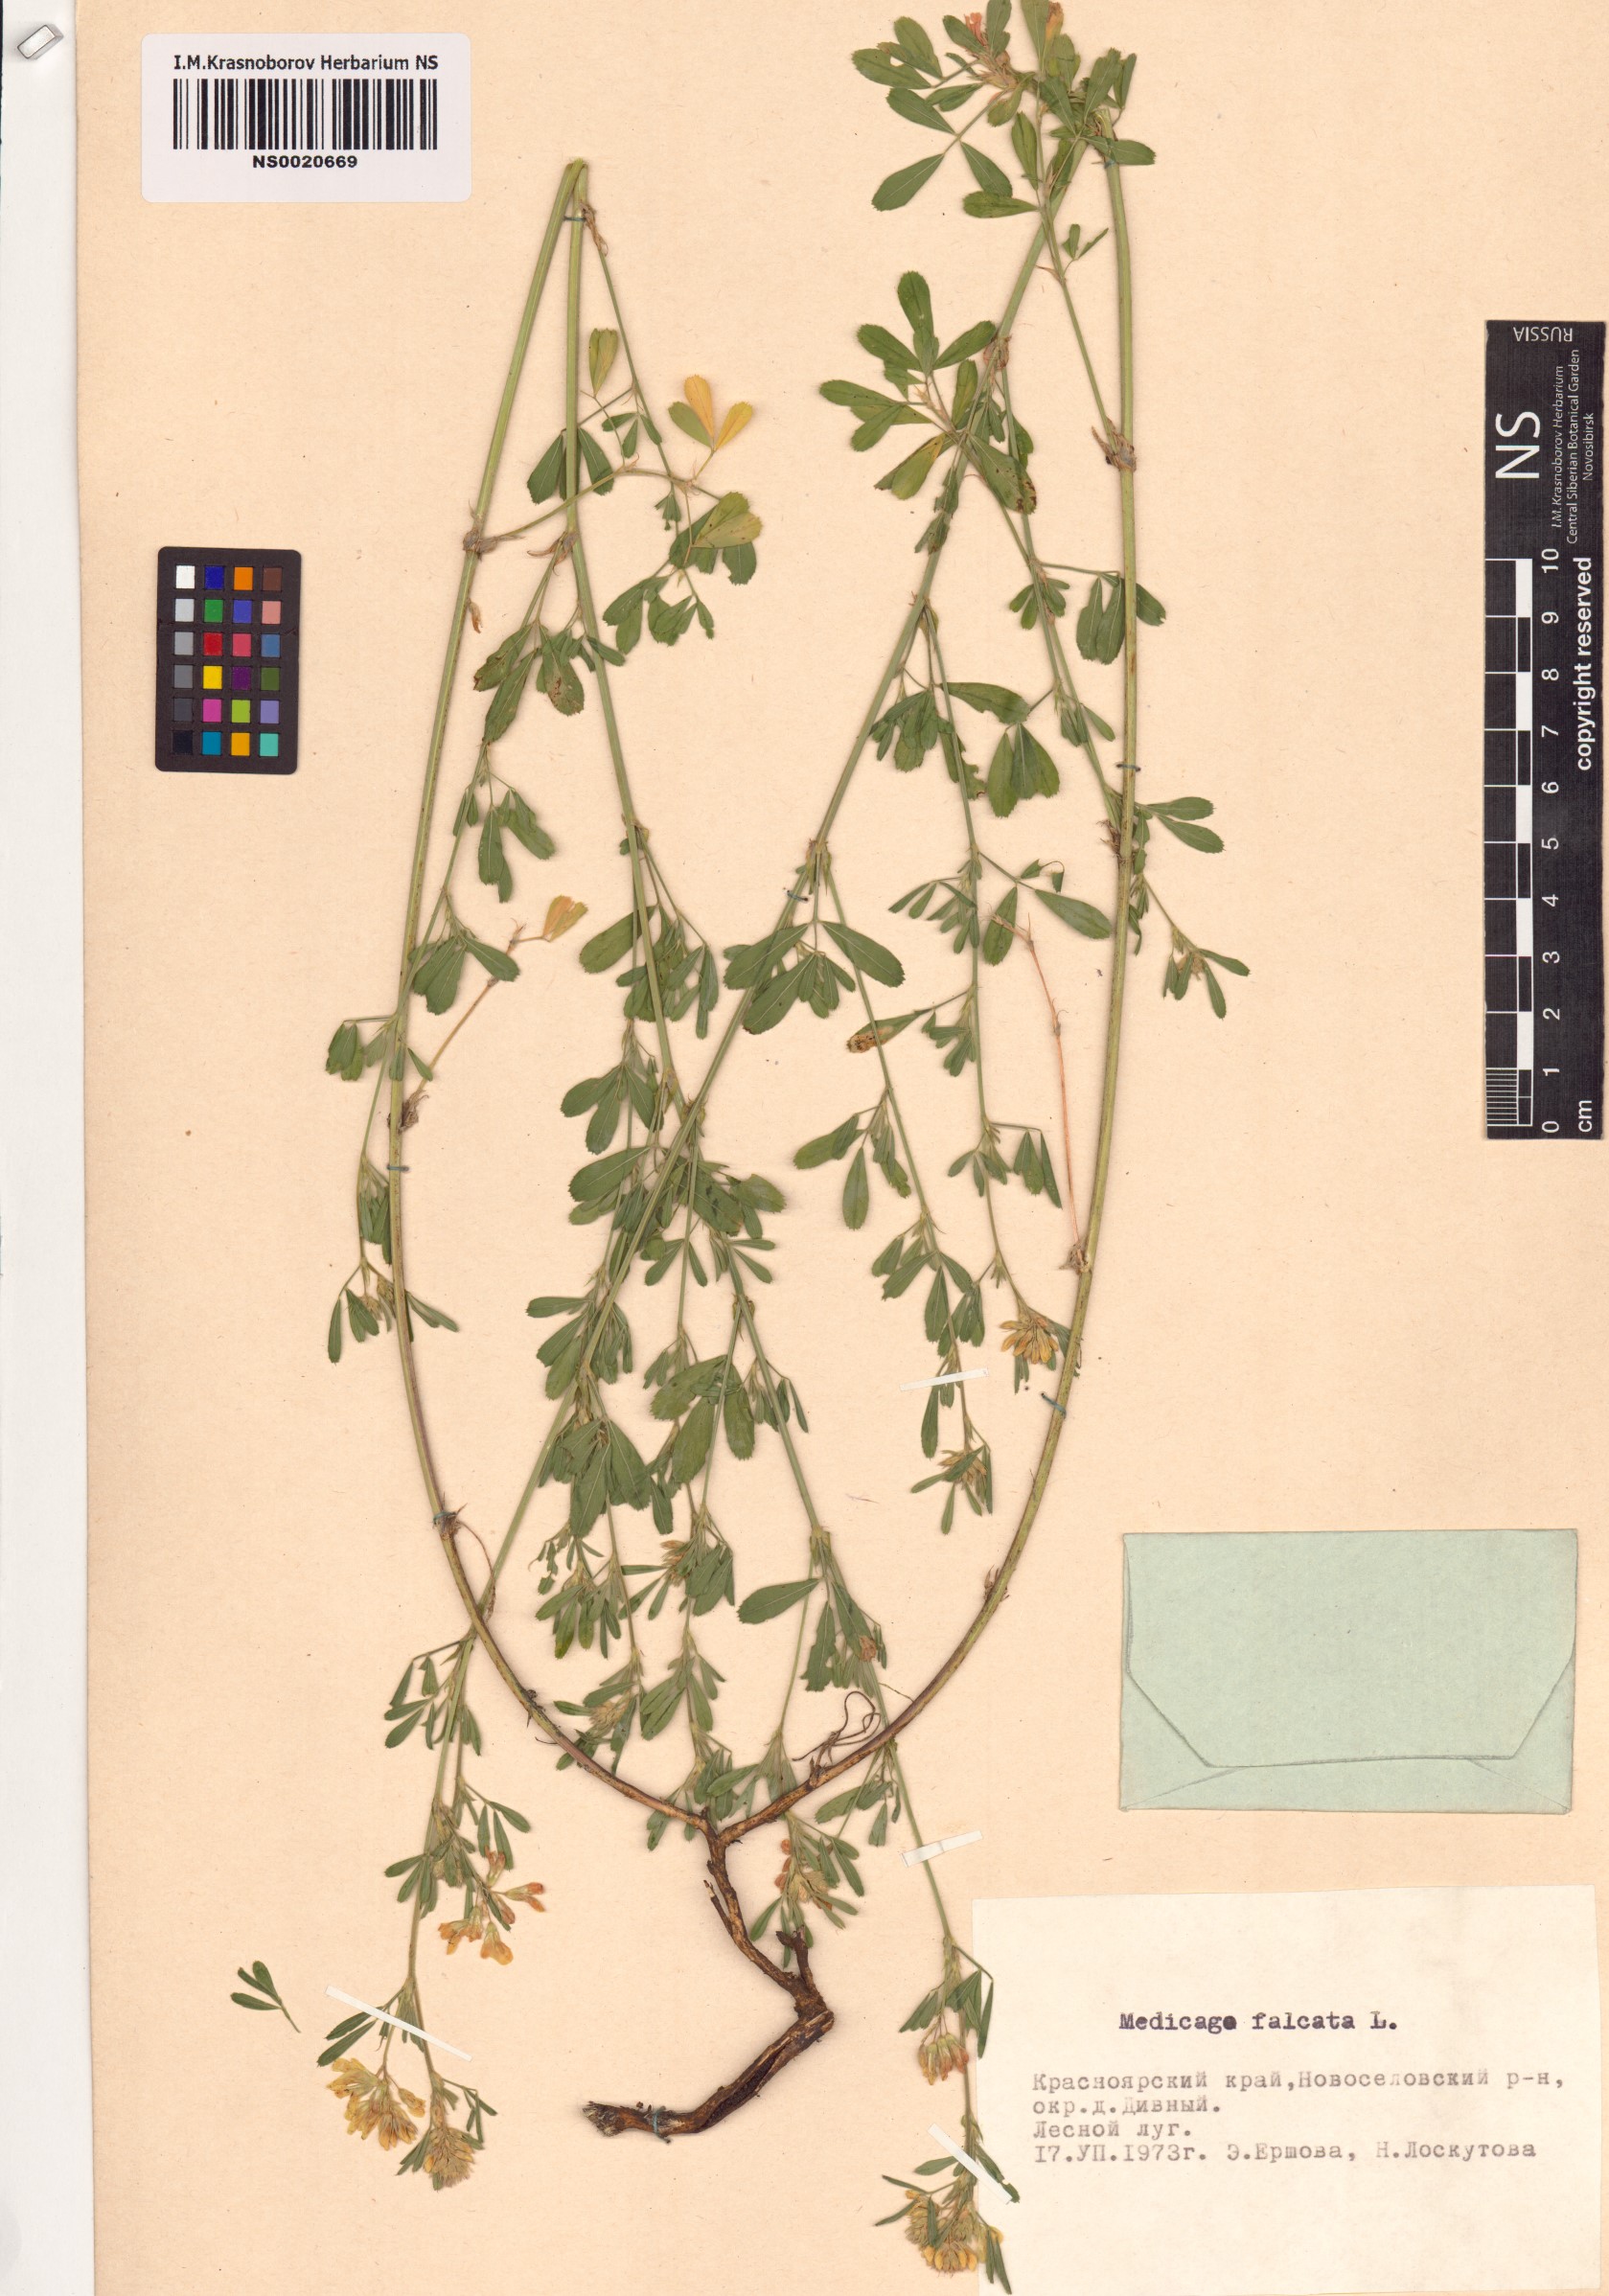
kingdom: Plantae
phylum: Tracheophyta
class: Magnoliopsida
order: Fabales
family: Fabaceae
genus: Medicago
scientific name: Medicago falcata
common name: Sickle medick
